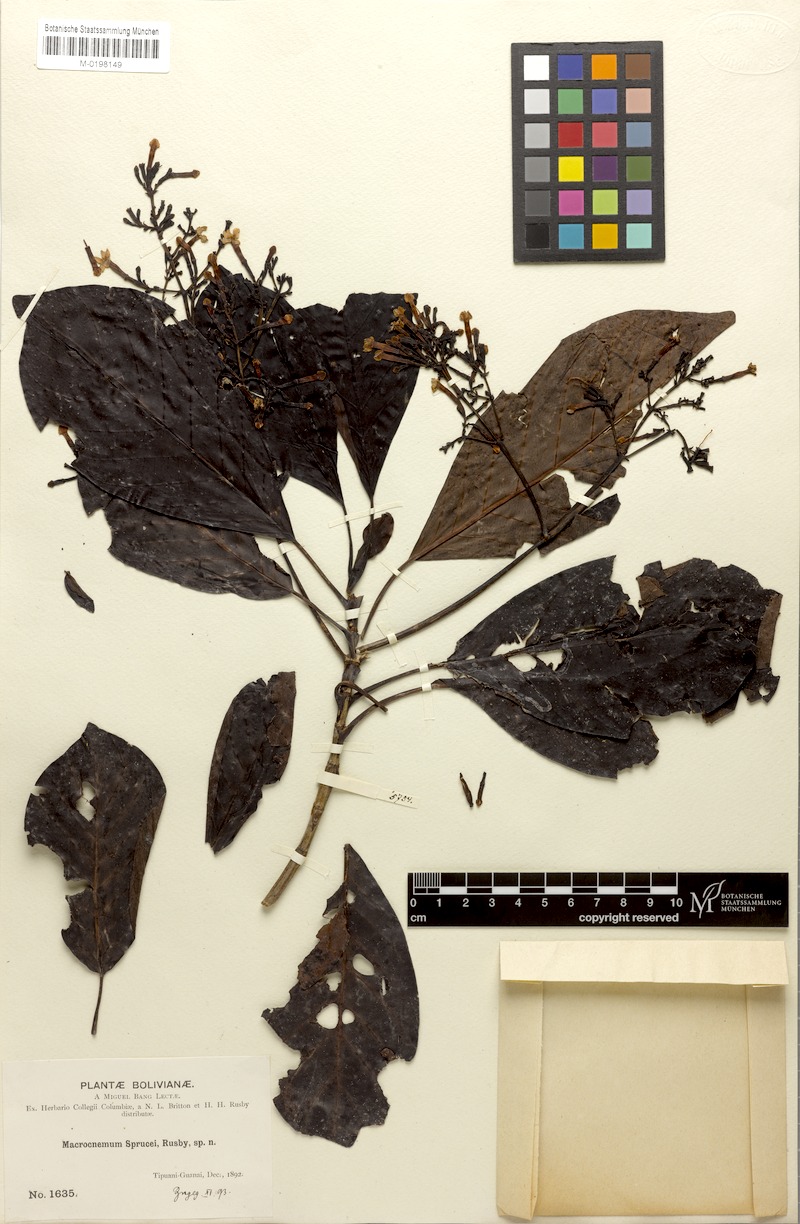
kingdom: Plantae
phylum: Tracheophyta
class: Magnoliopsida
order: Gentianales
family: Rubiaceae
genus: Macrocnemum
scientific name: Macrocnemum roseum
